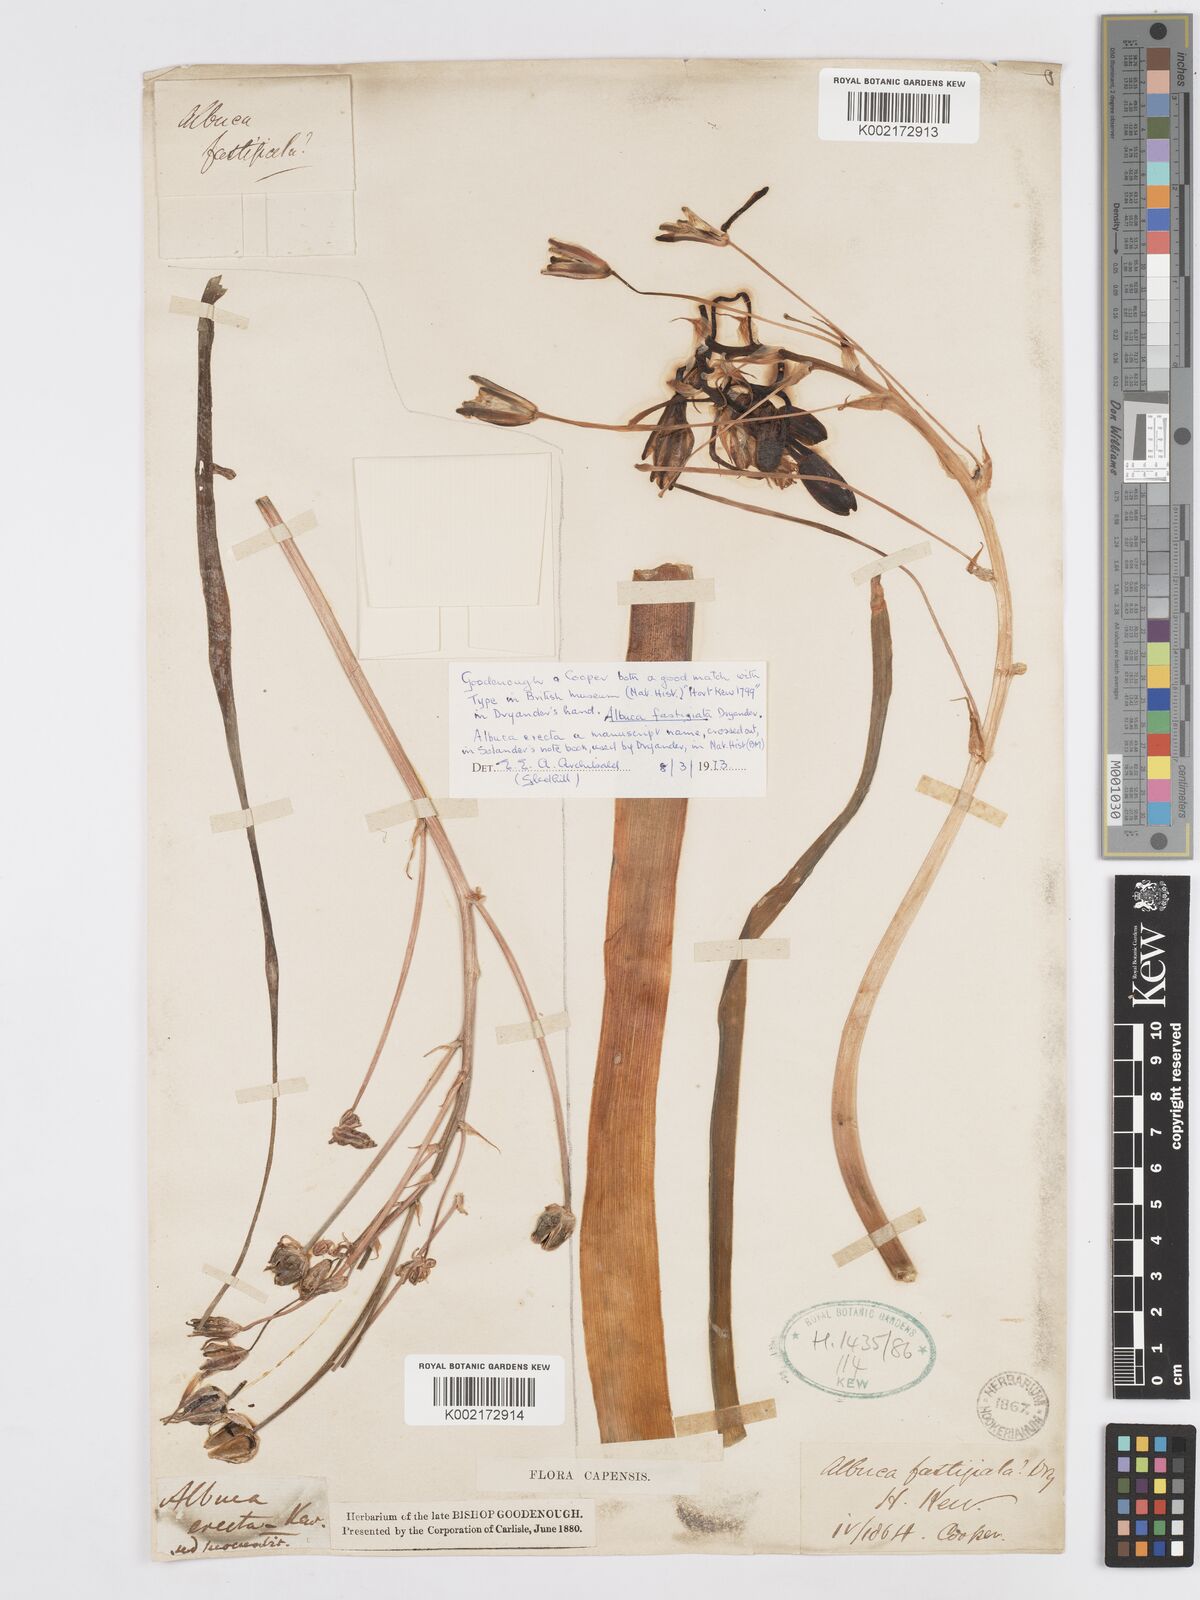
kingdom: Plantae
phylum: Tracheophyta
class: Liliopsida
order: Asparagales
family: Asparagaceae
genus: Albuca
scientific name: Albuca fastigiata
